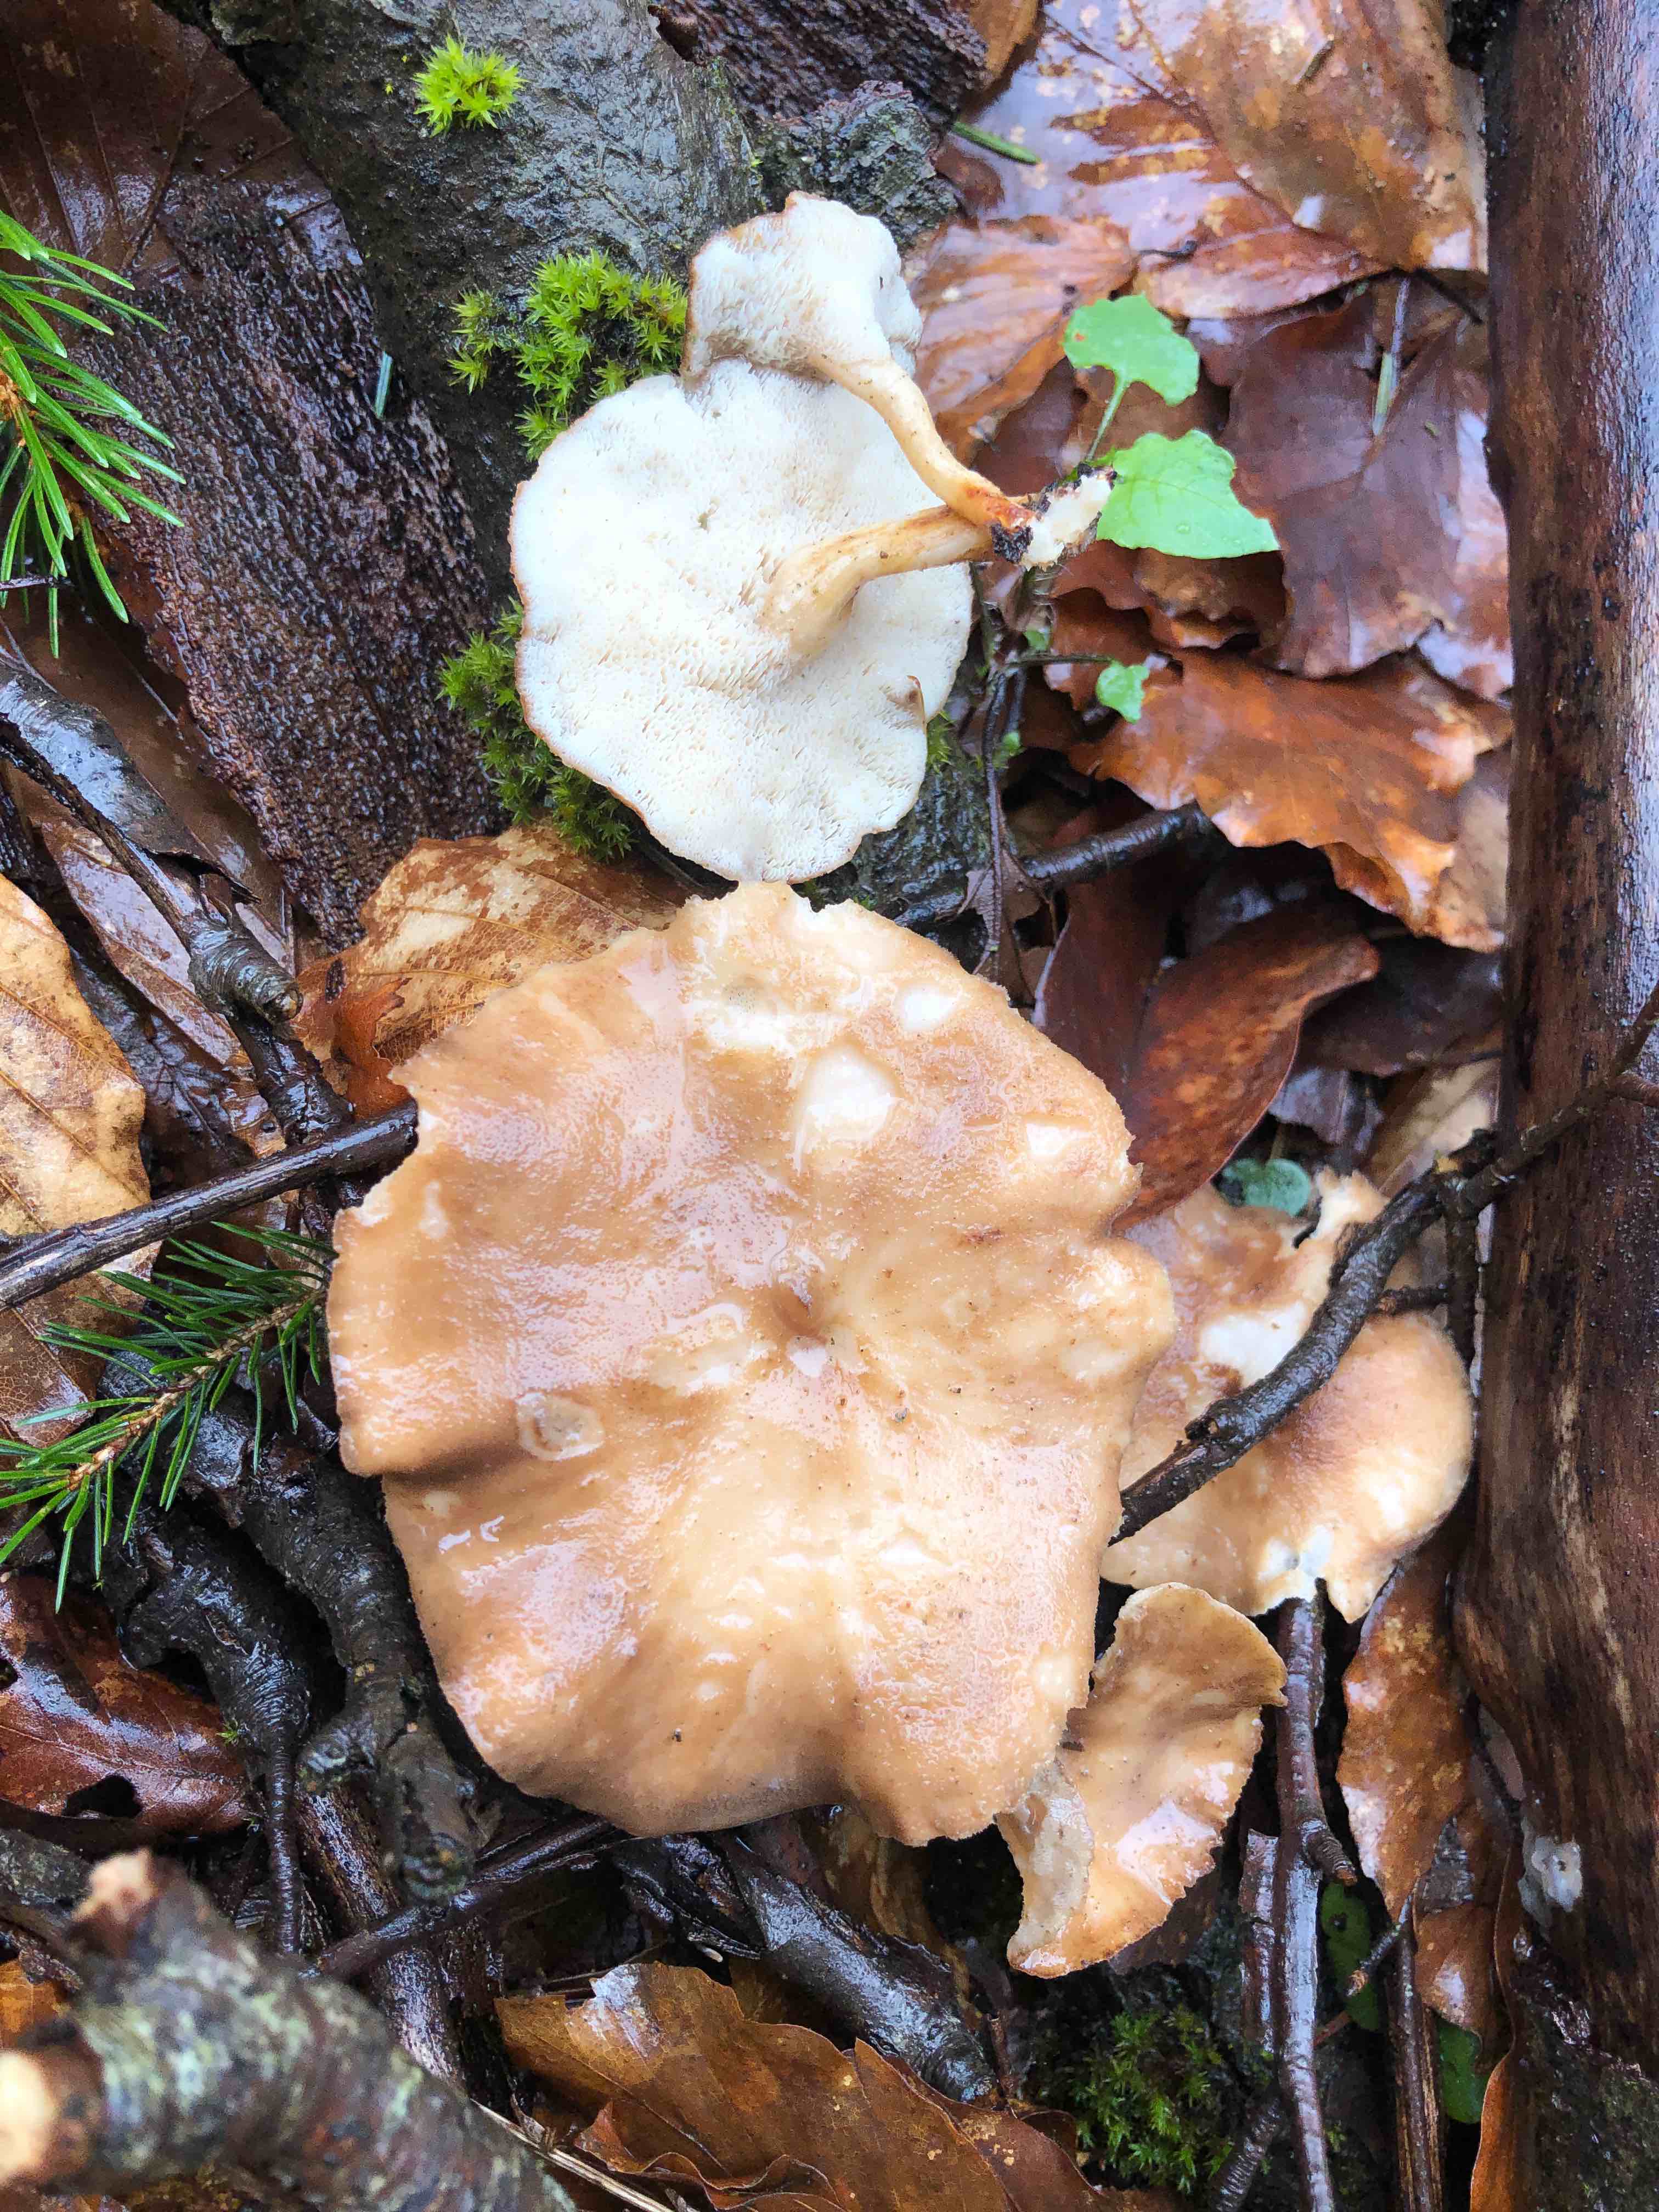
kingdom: Fungi
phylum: Basidiomycota
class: Agaricomycetes
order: Polyporales
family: Polyporaceae
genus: Lentinus
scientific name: Lentinus brumalis
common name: vinter-stilkporesvamp
